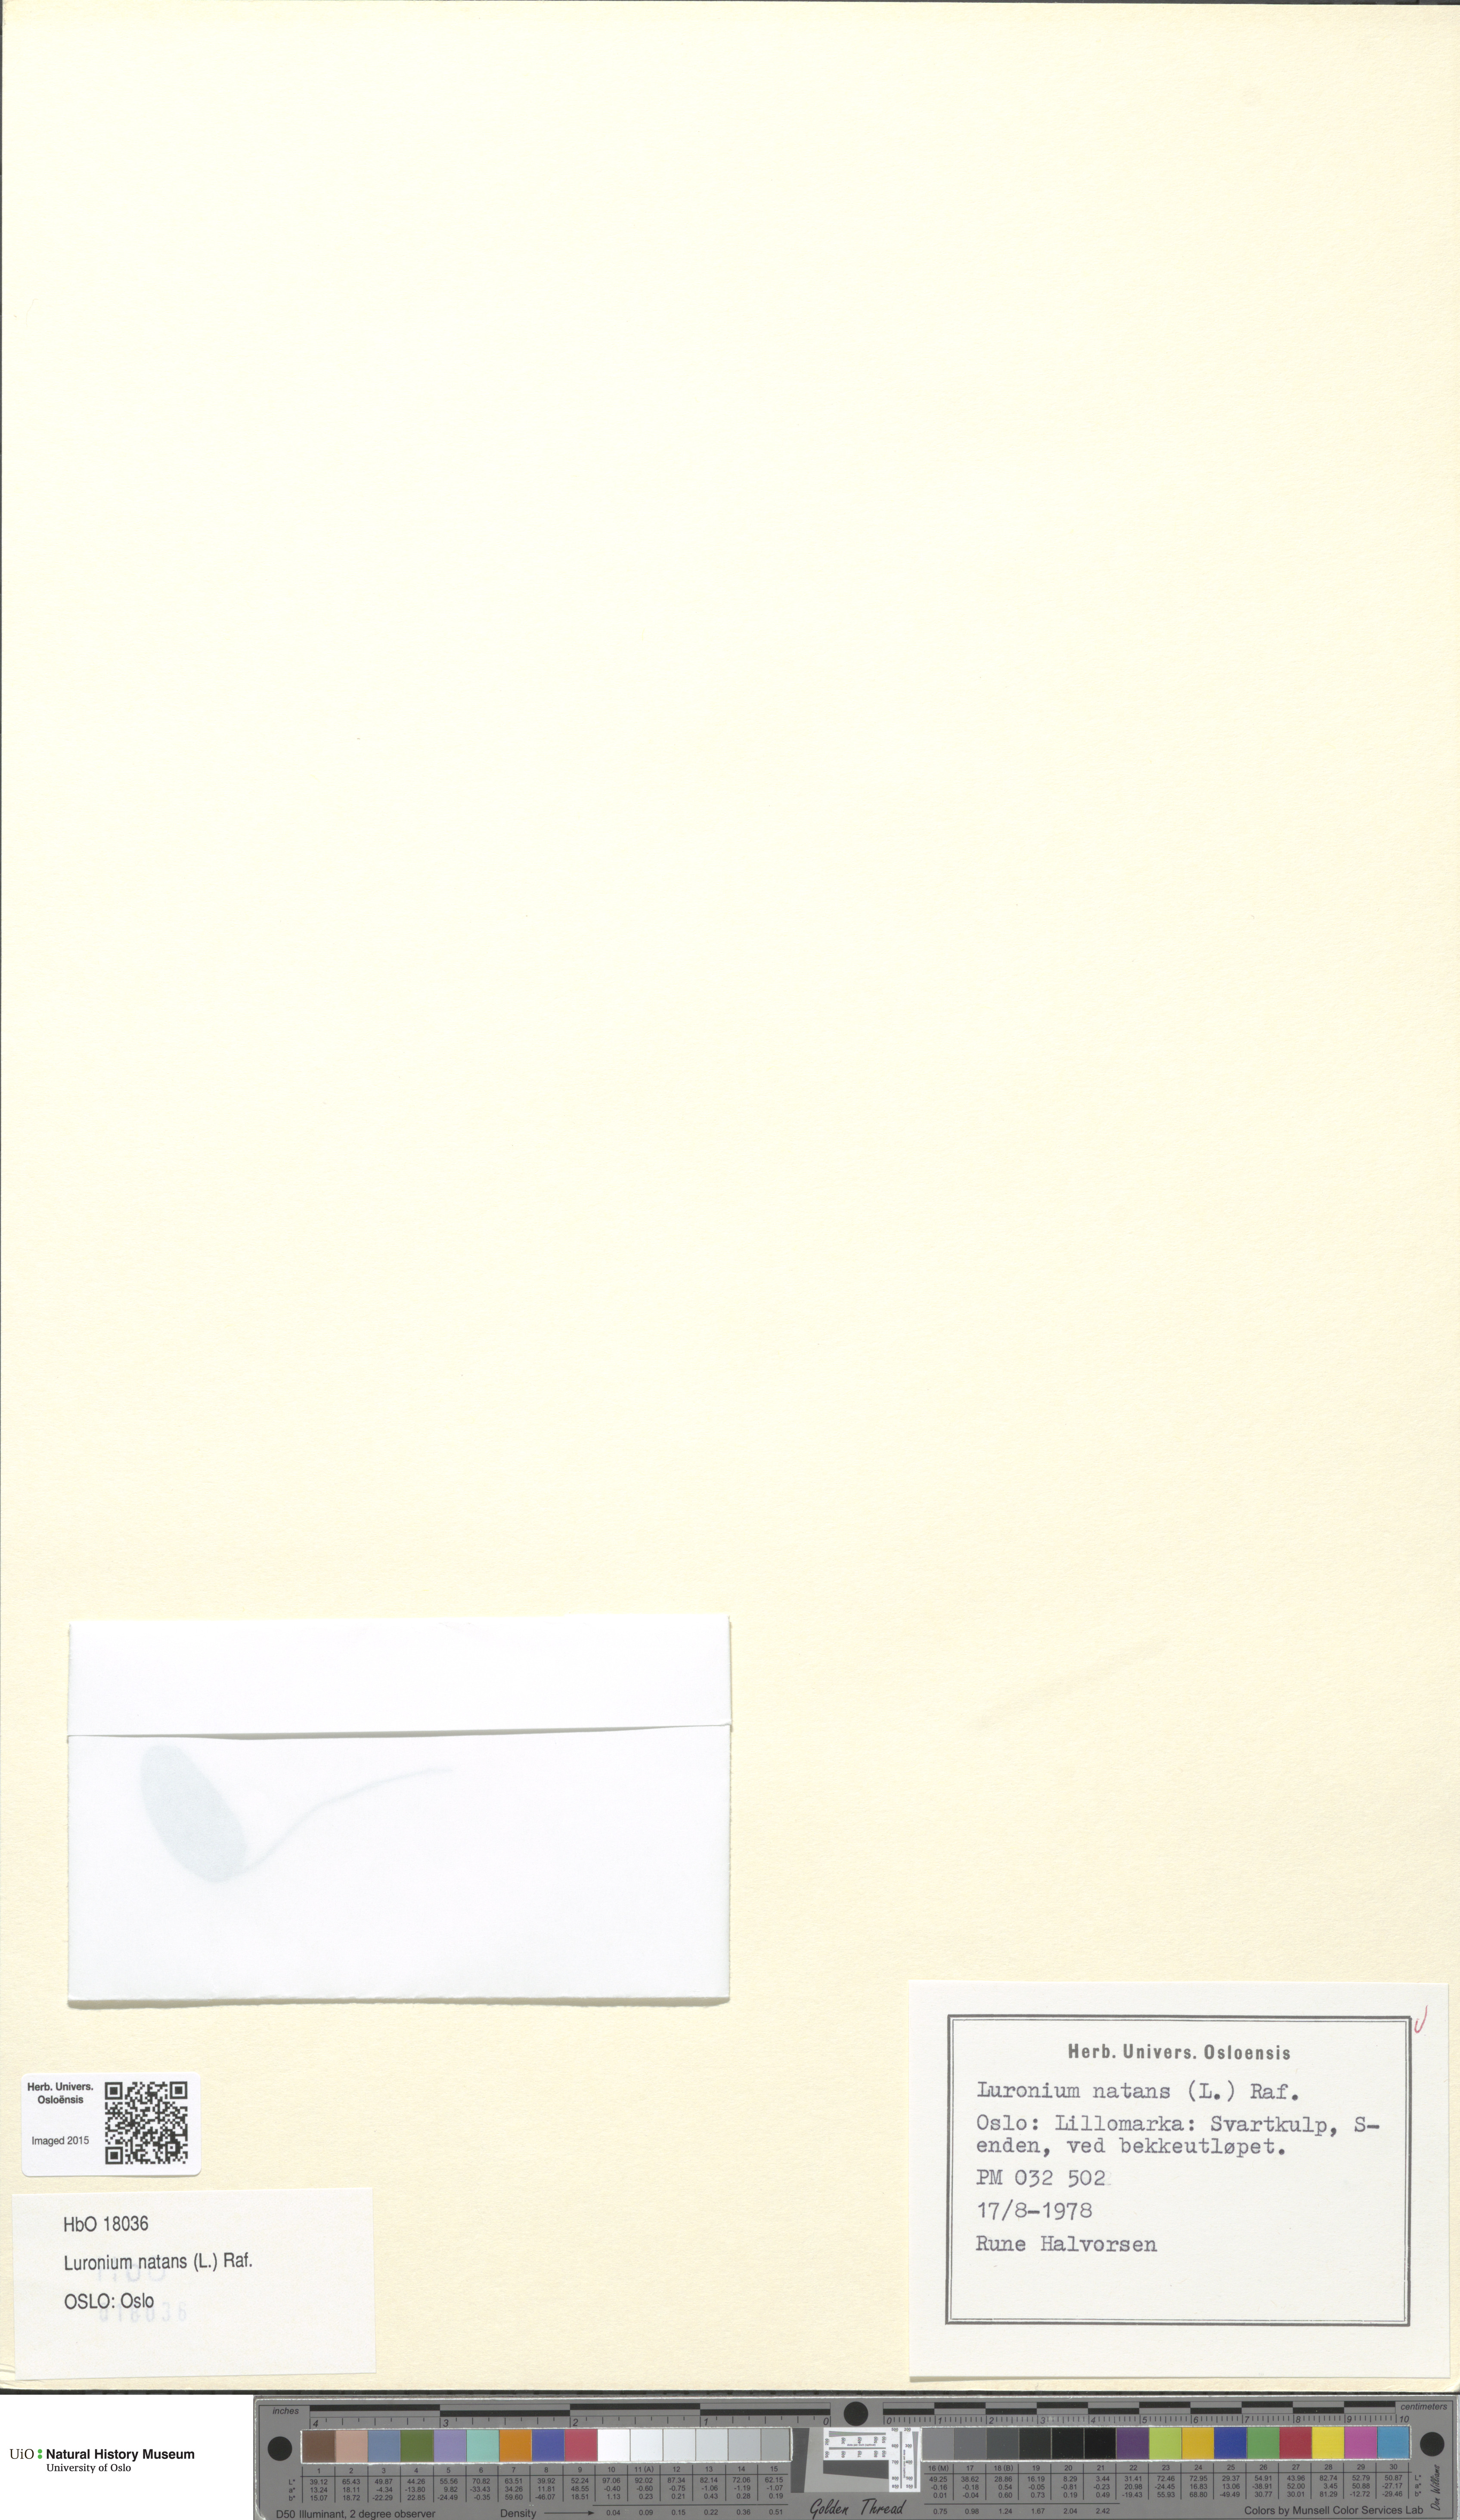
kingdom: Plantae
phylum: Tracheophyta
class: Liliopsida
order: Alismatales
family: Alismataceae
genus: Luronium
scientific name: Luronium natans
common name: Floating water-plantain
